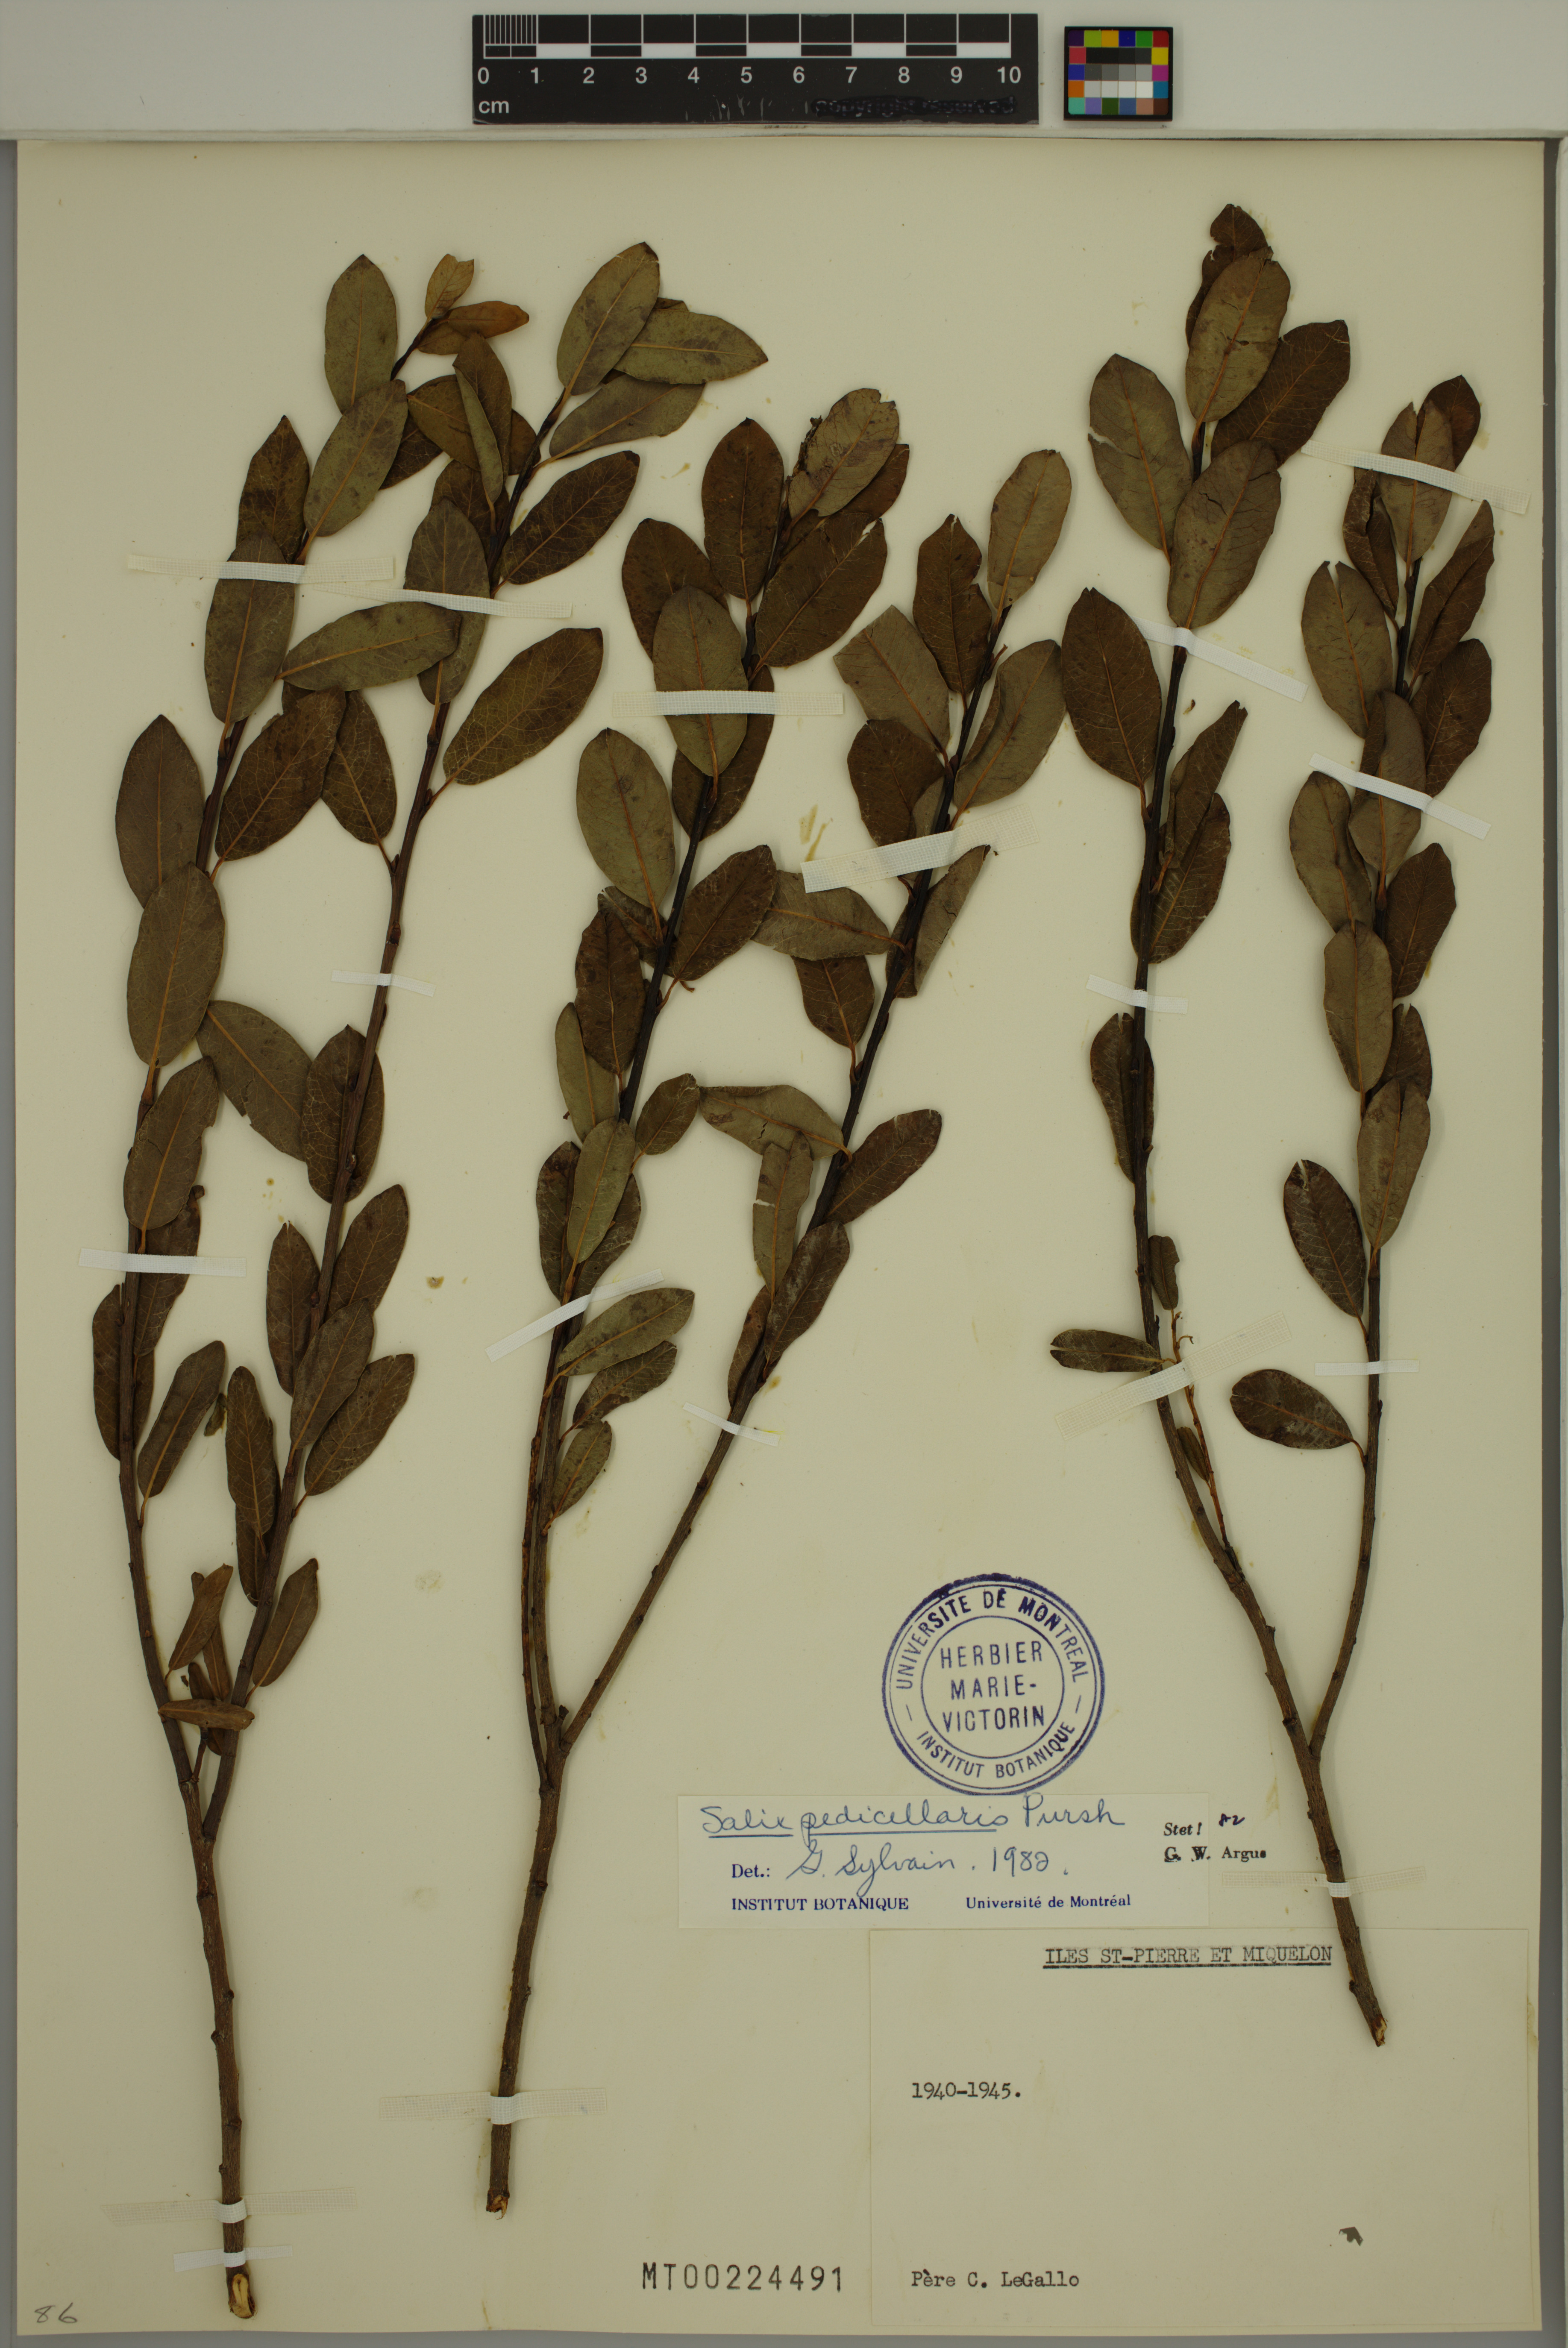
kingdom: Plantae
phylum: Tracheophyta
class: Magnoliopsida
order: Malpighiales
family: Salicaceae
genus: Salix
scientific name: Salix pedicellaris
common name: Bog willow
